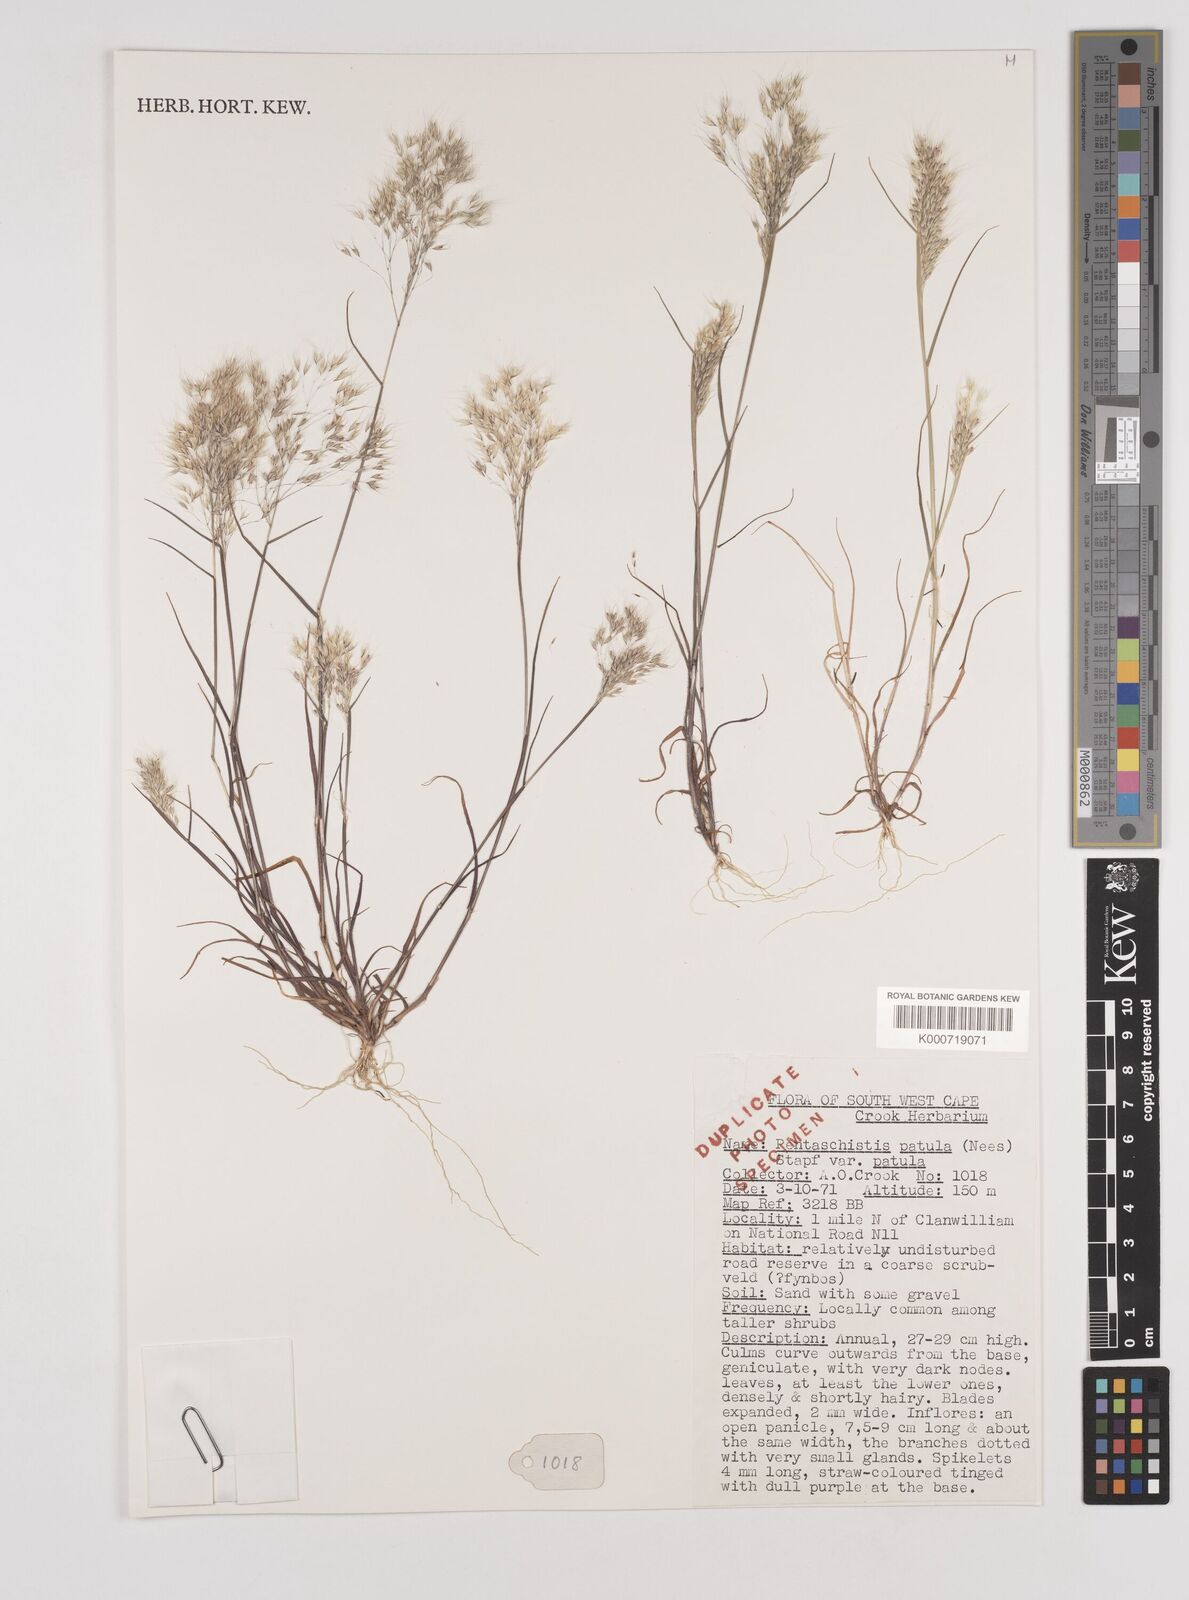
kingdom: Plantae
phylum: Tracheophyta
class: Liliopsida
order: Poales
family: Poaceae
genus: Pentameris
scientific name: Pentameris patula
